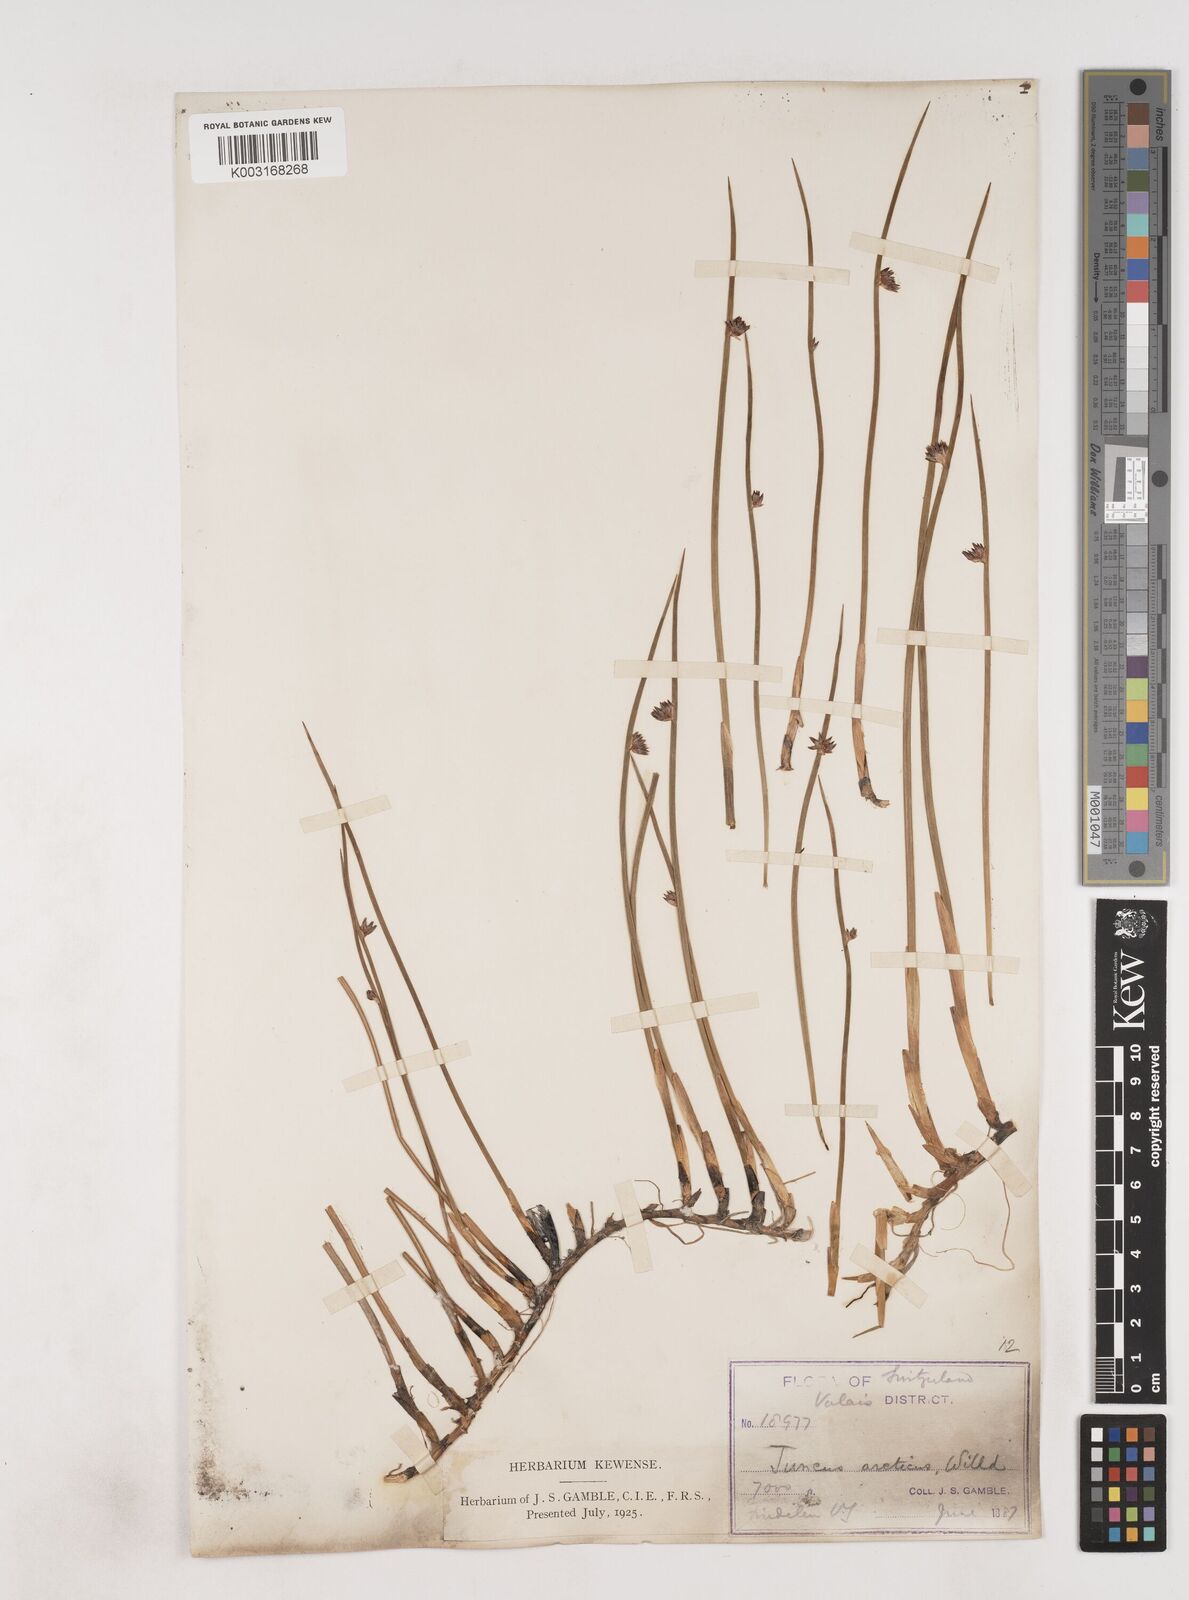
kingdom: Plantae
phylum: Tracheophyta
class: Liliopsida
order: Poales
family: Juncaceae
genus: Juncus
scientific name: Juncus arcticus
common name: Arctic rush
